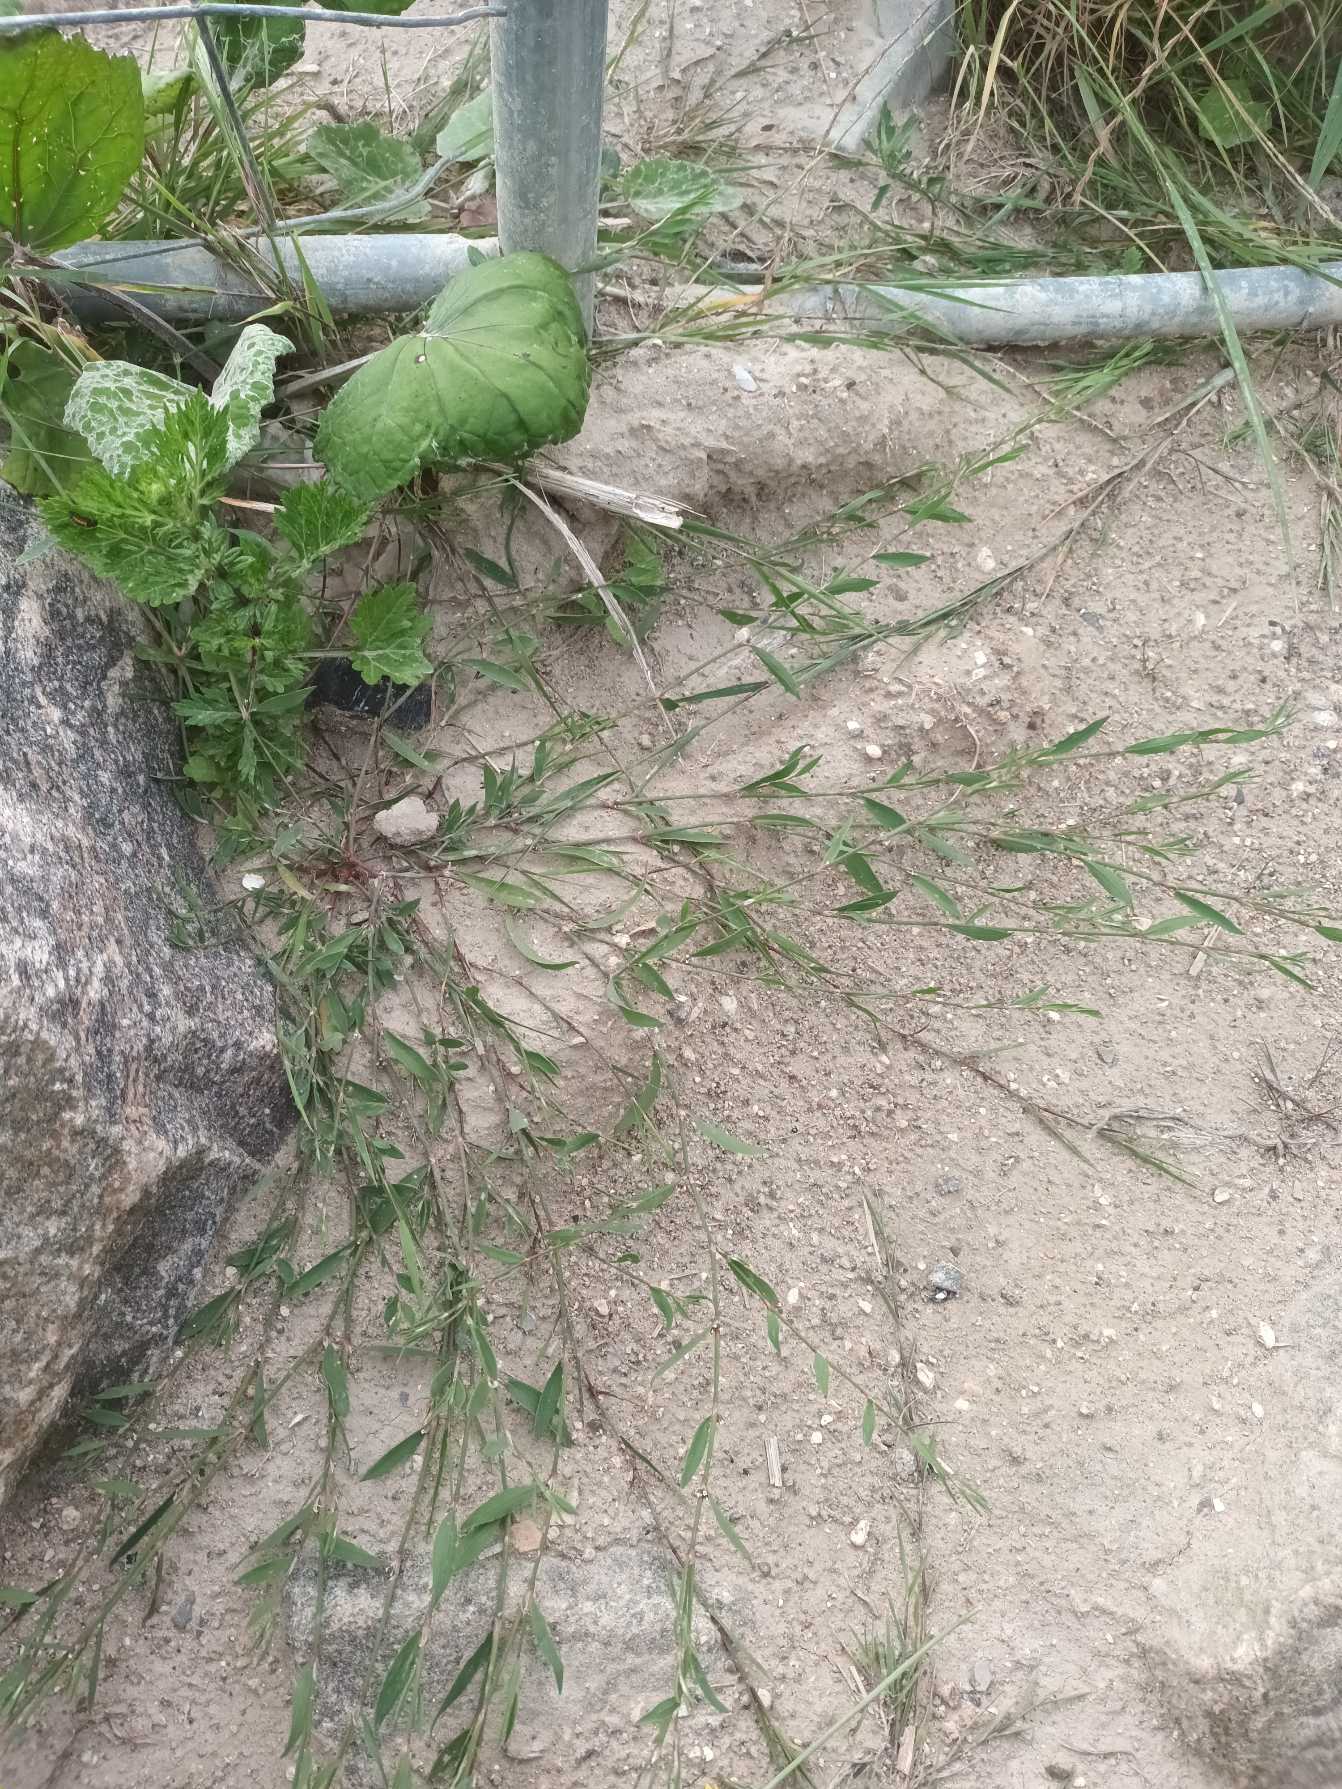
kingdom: Plantae
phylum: Tracheophyta
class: Magnoliopsida
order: Caryophyllales
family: Polygonaceae
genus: Polygonum
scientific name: Polygonum aviculare
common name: Spidsbladet vej-pileurt
